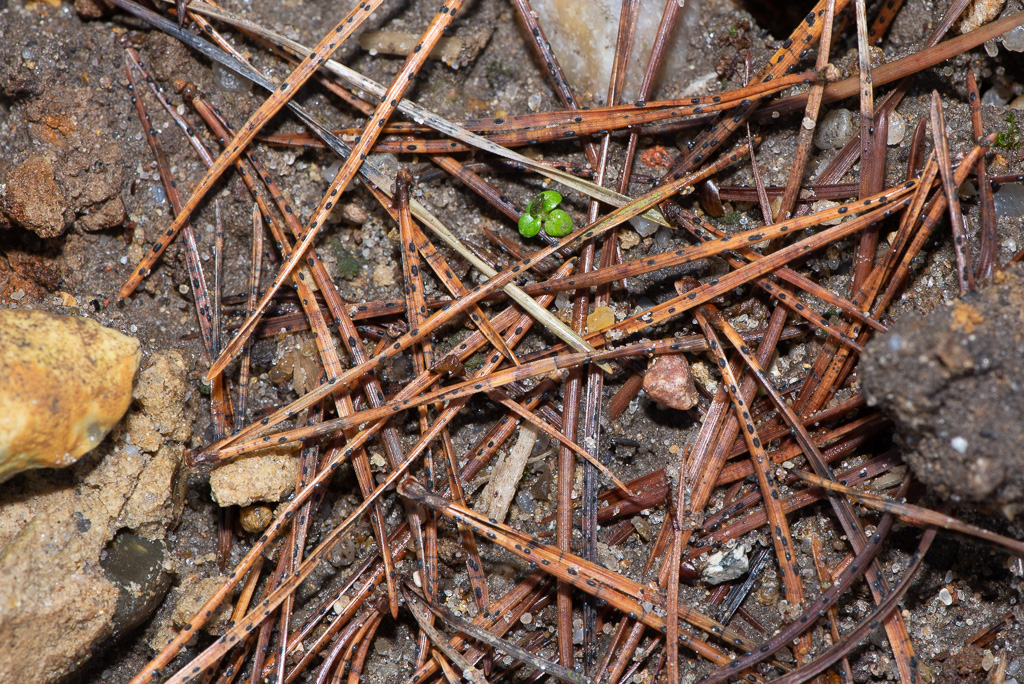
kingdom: Fungi
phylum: Ascomycota
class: Leotiomycetes
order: Rhytismatales
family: Rhytismataceae
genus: Lophodermium
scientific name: Lophodermium pinastri
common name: fyrre-fureplet
